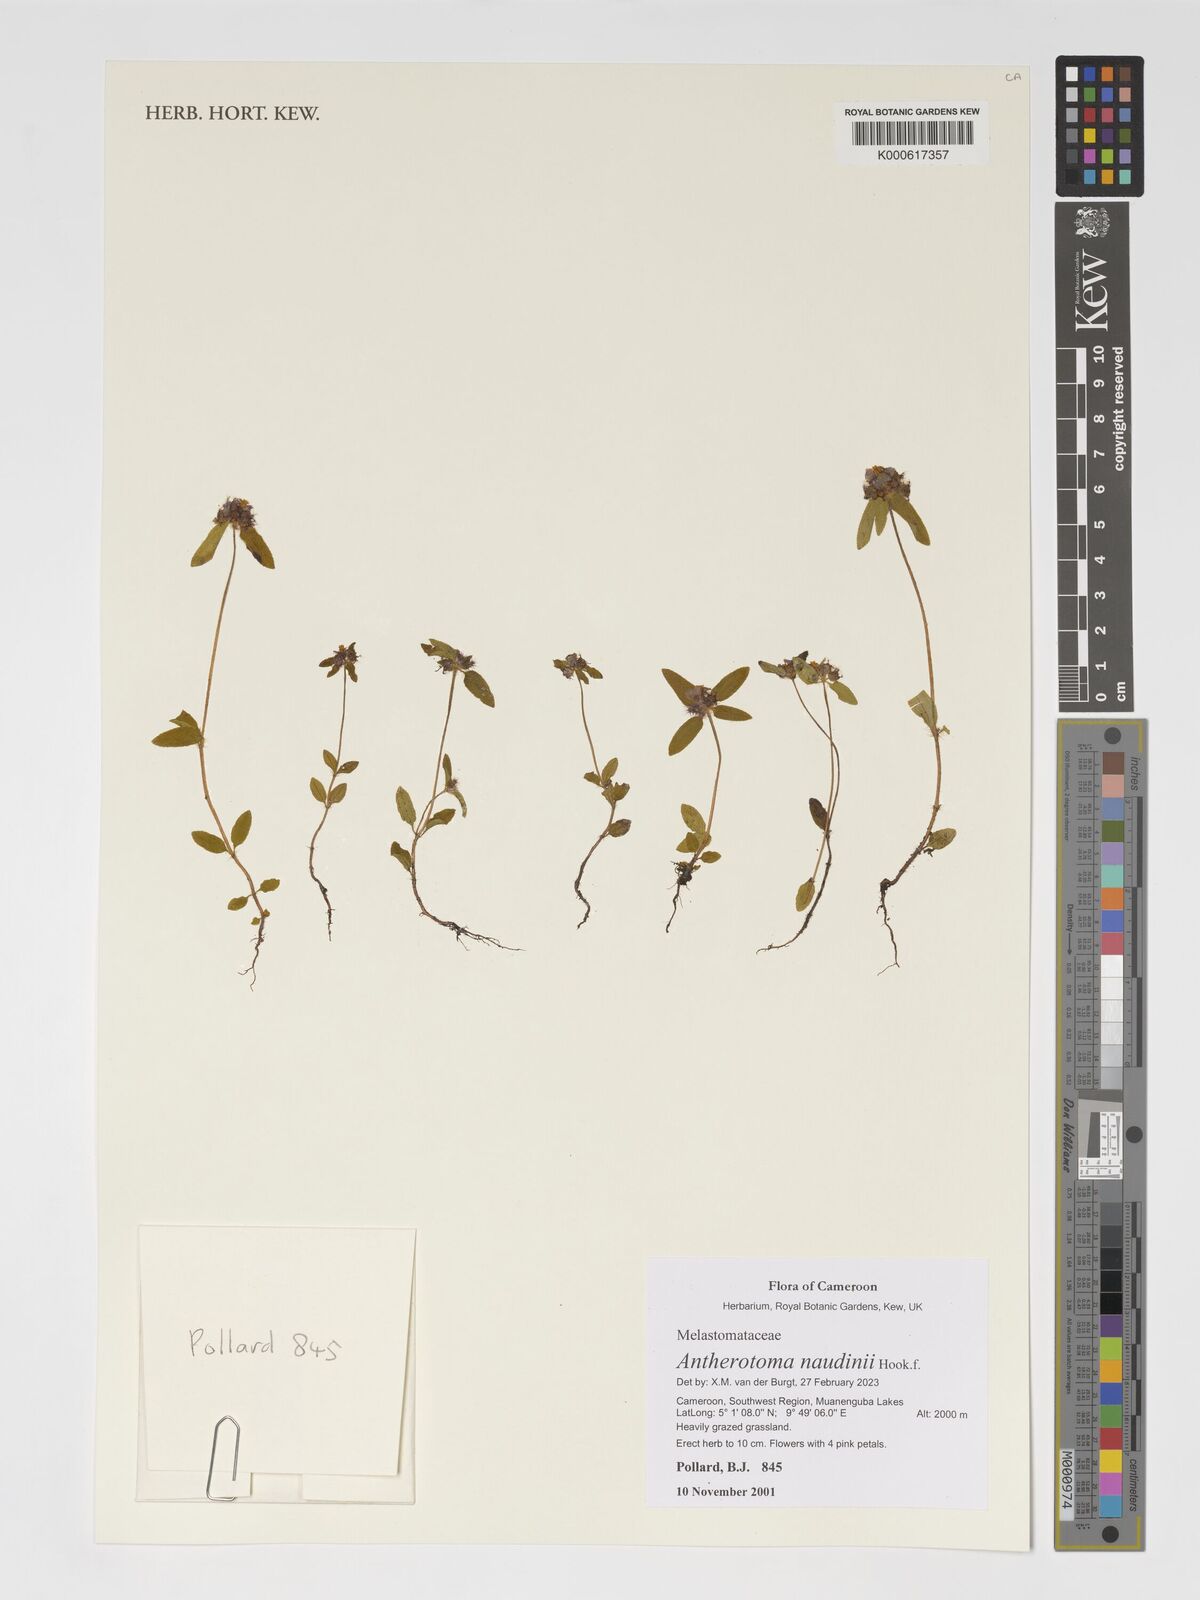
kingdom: Plantae
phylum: Tracheophyta
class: Magnoliopsida
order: Myrtales
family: Melastomataceae
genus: Antherotoma
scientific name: Antherotoma naudinii
